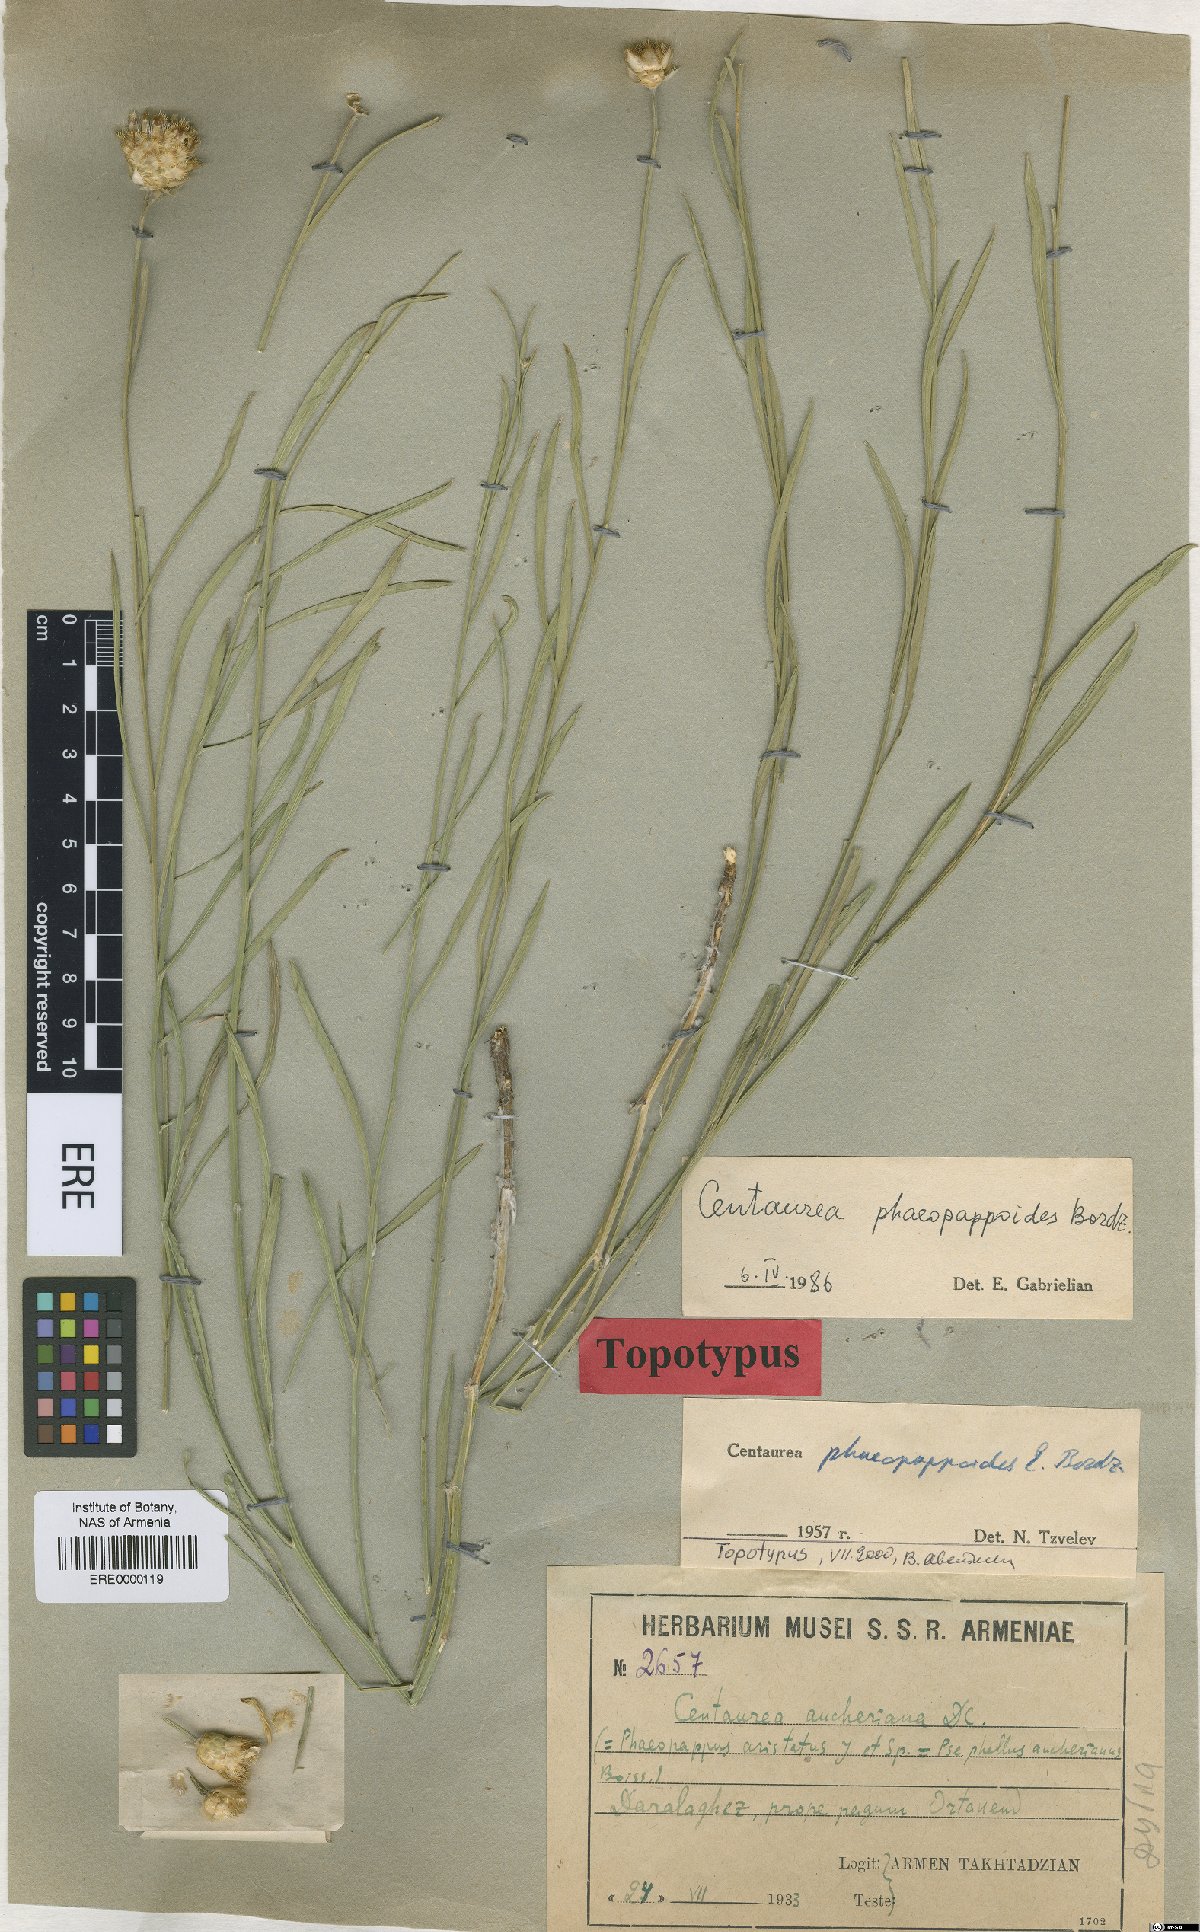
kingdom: Plantae
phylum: Tracheophyta
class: Magnoliopsida
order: Asterales
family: Asteraceae
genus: Psephellus
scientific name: Psephellus phaeopappoides
